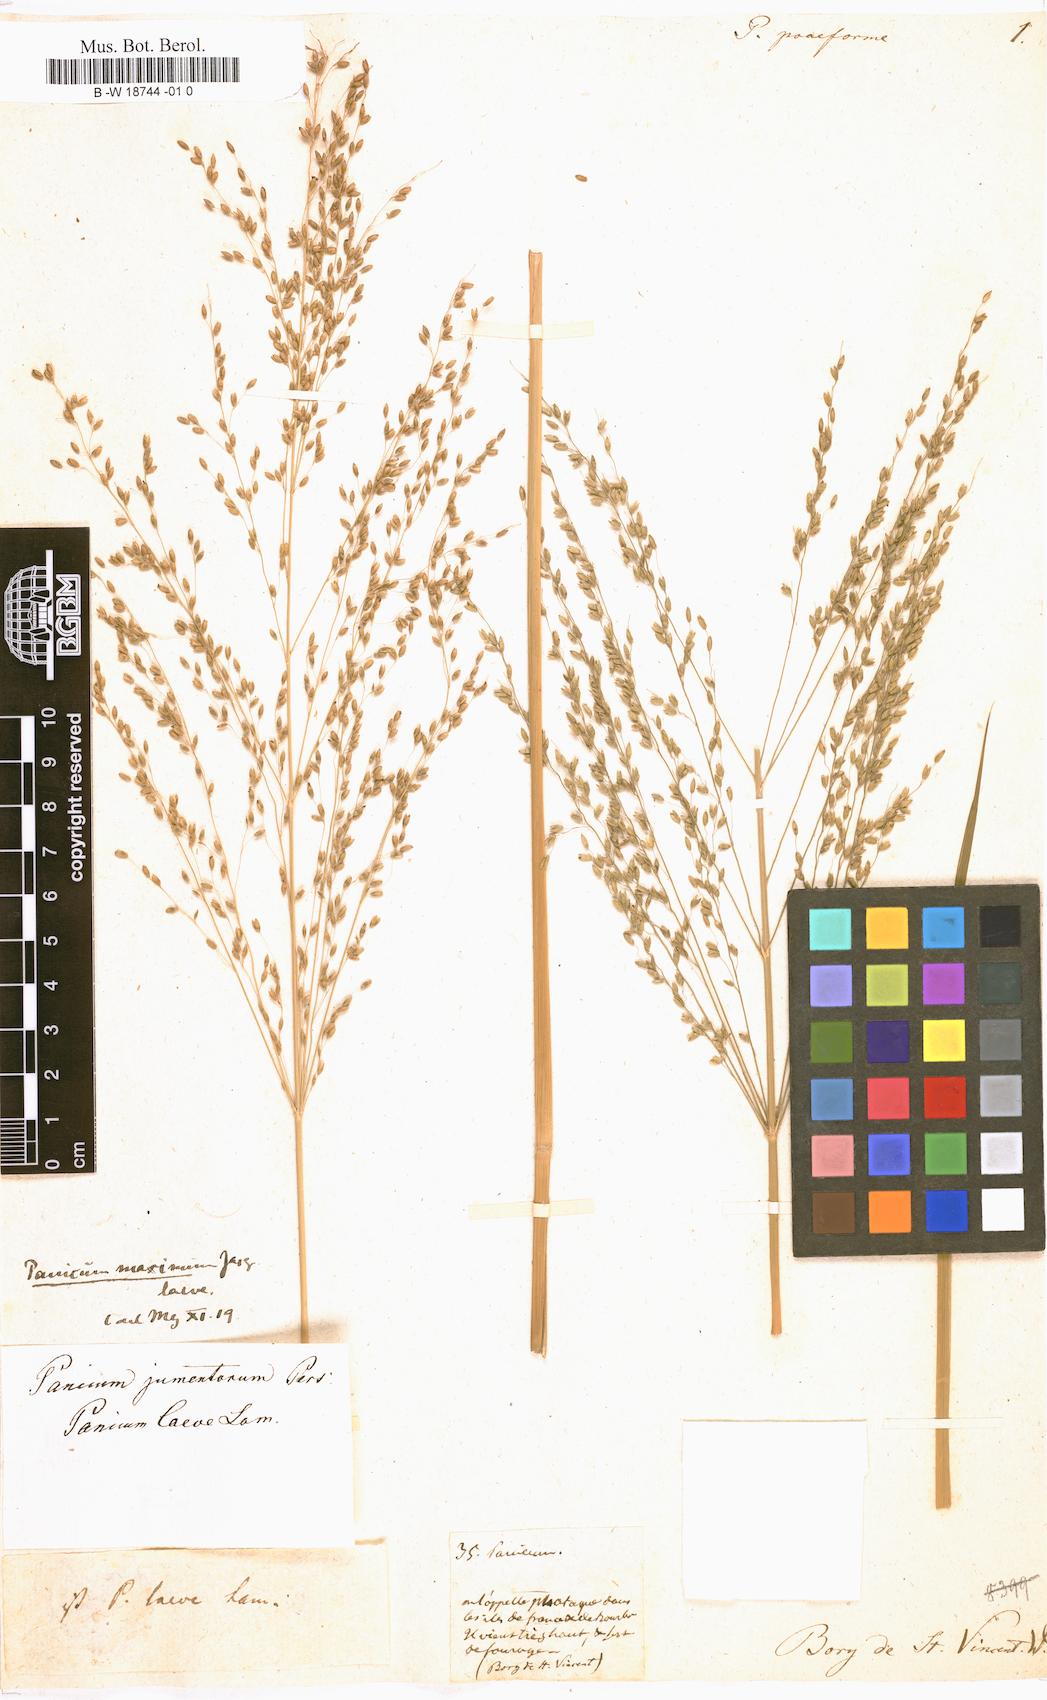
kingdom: Plantae
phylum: Tracheophyta
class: Liliopsida
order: Poales
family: Poaceae
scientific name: Poaceae
